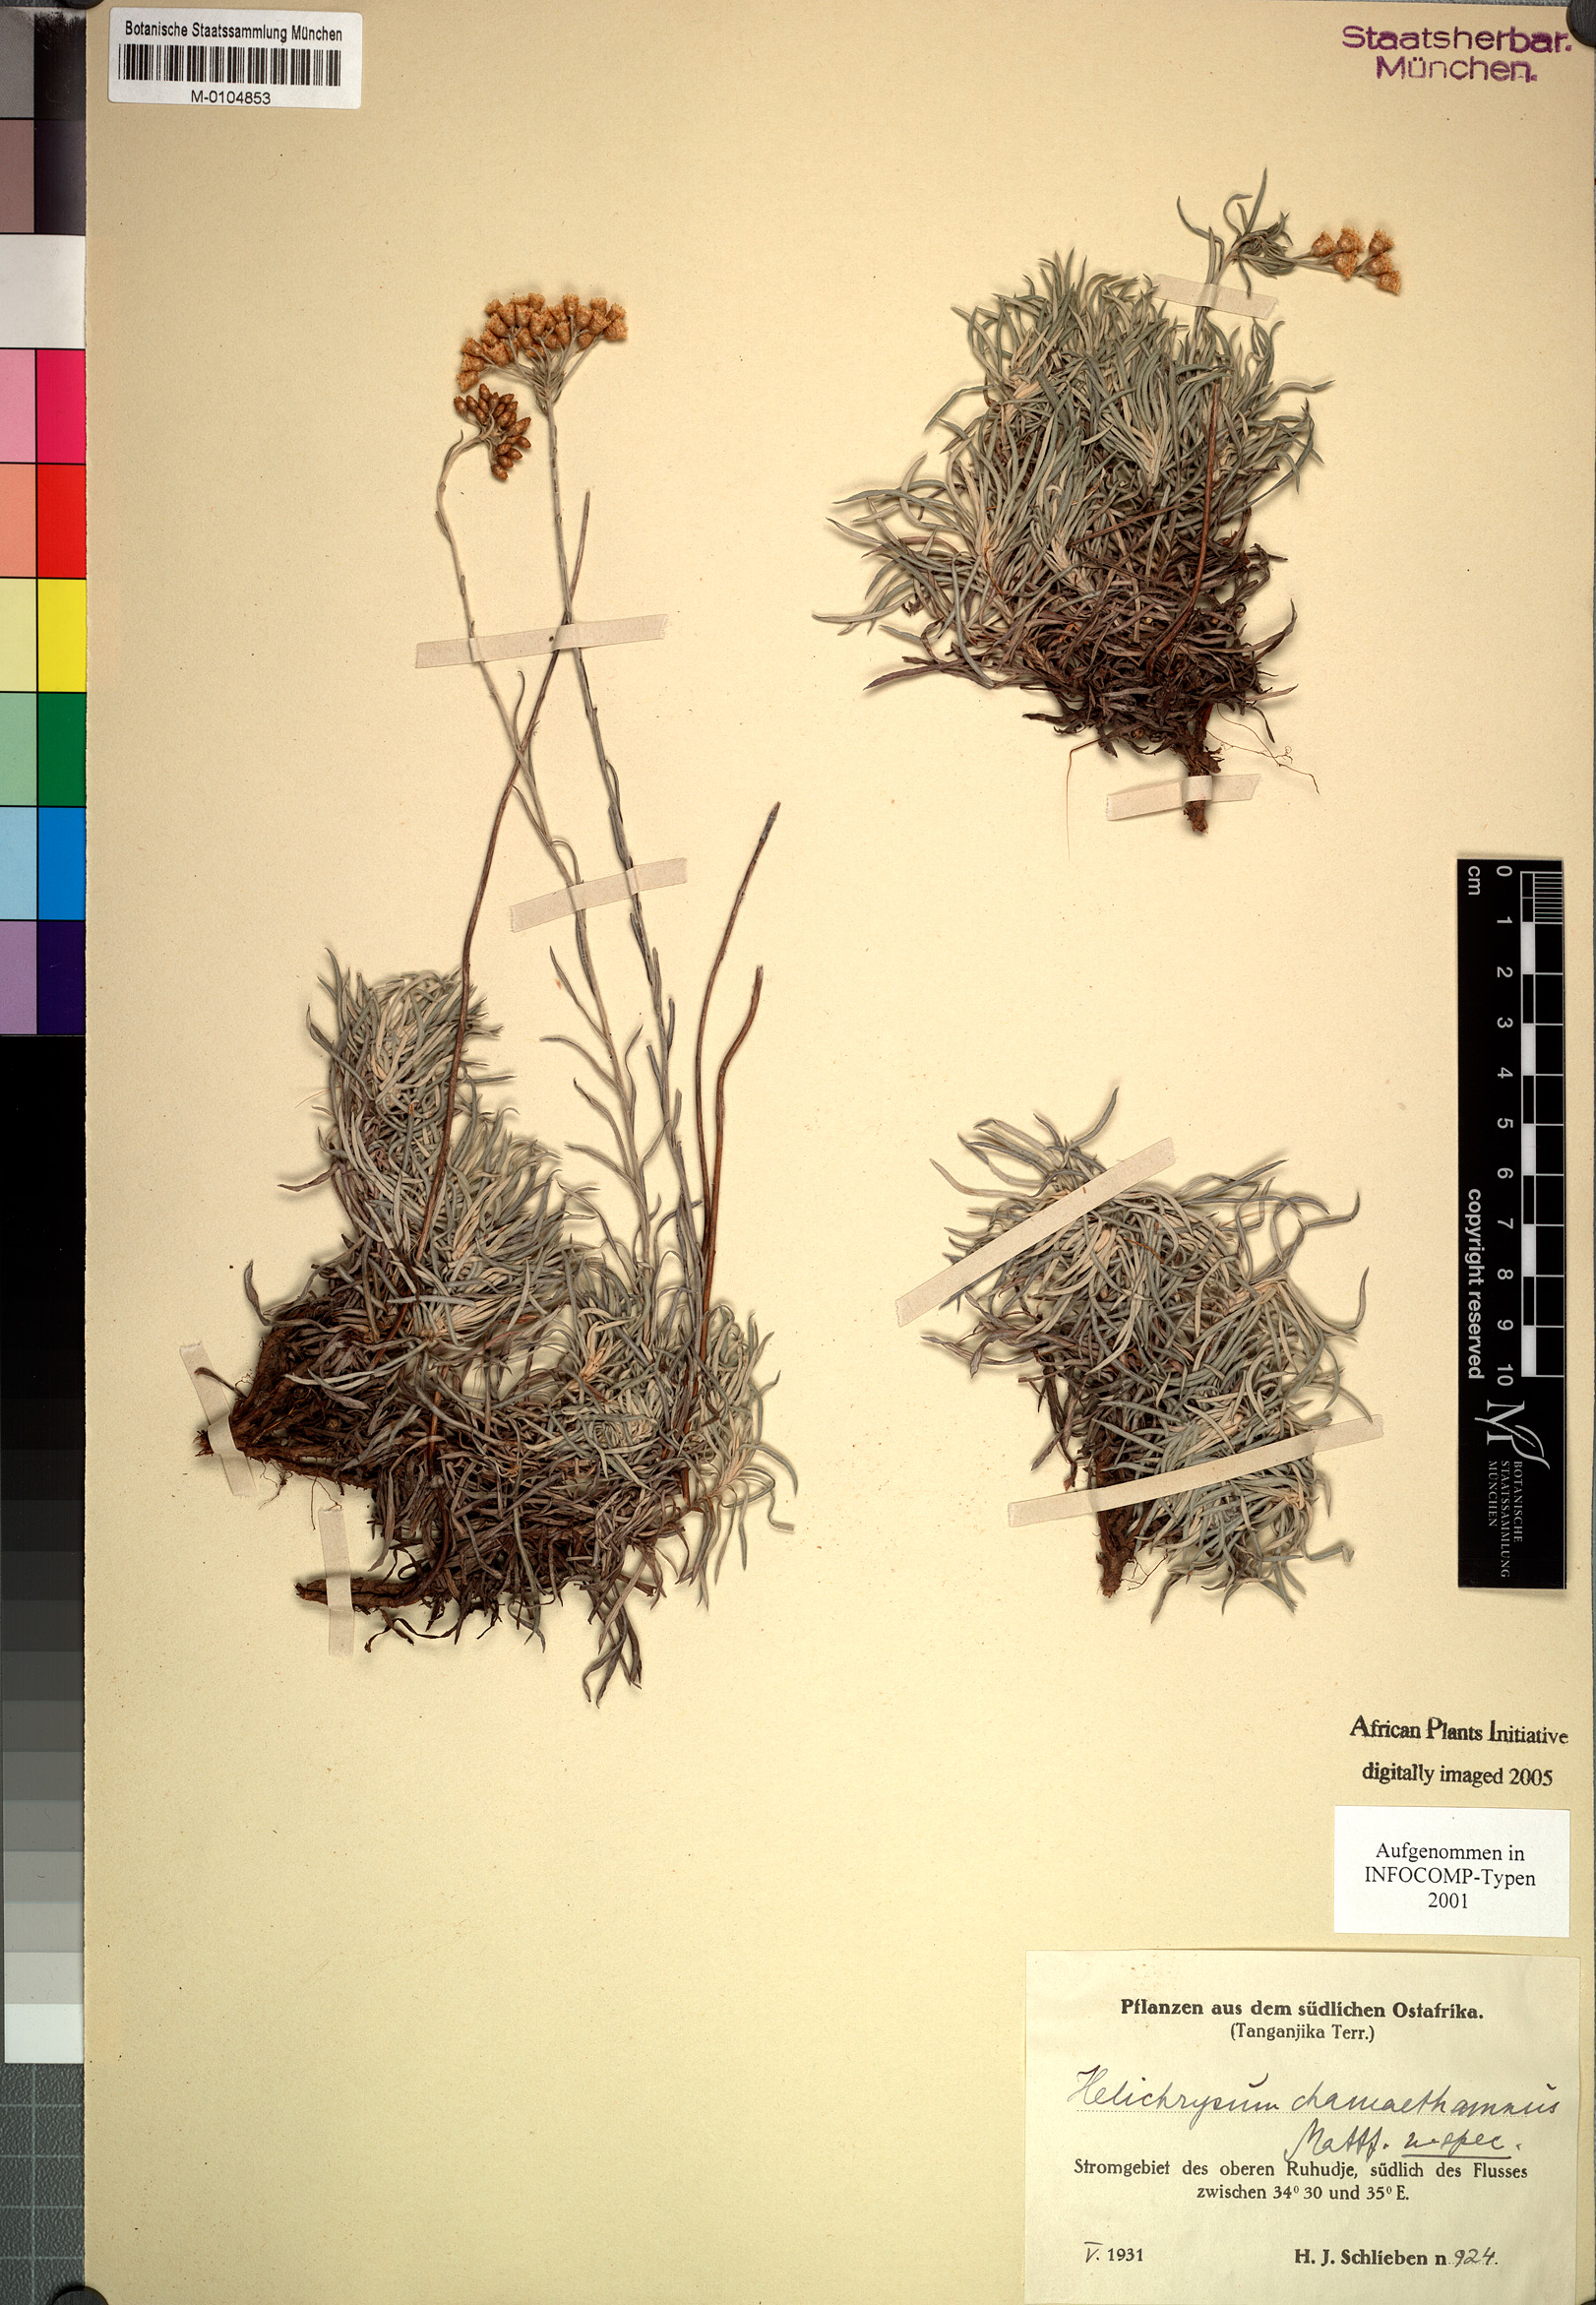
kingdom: Plantae
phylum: Tracheophyta
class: Magnoliopsida
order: Asterales
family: Asteraceae
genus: Helichrysum
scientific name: Helichrysum tillandsiifolium
